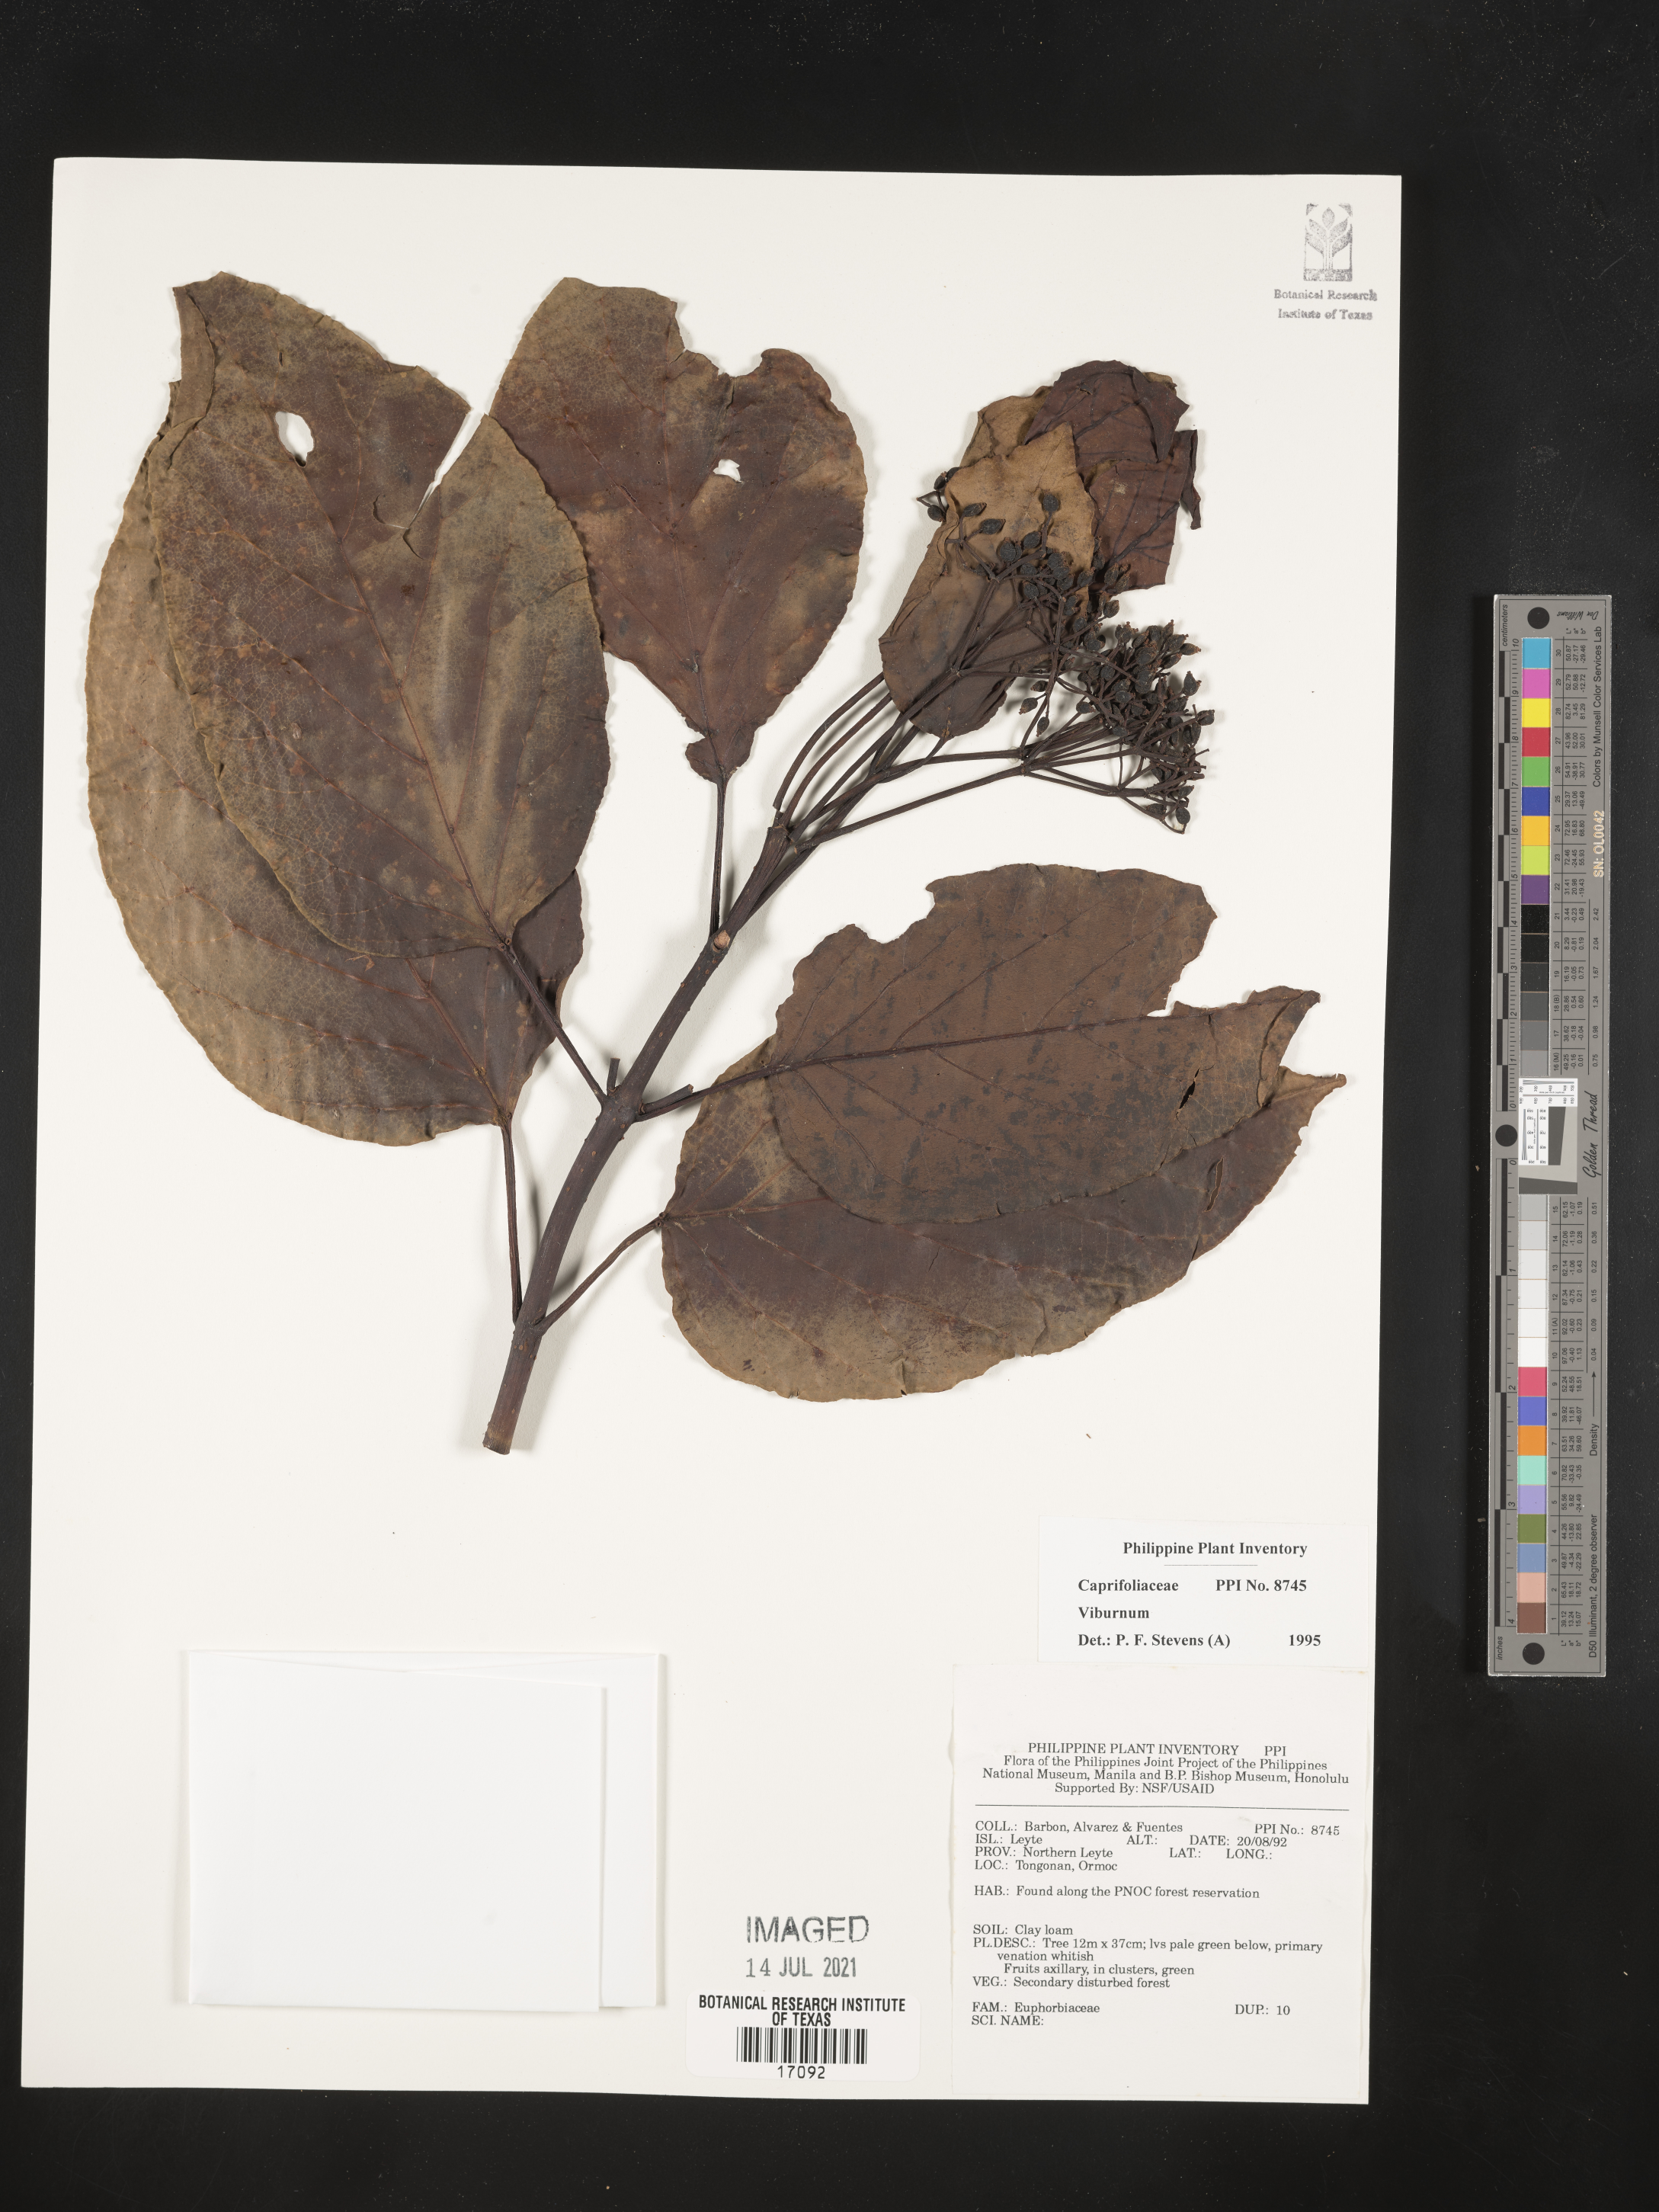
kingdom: Plantae
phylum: Tracheophyta
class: Magnoliopsida
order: Dipsacales
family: Viburnaceae
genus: Viburnum
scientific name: Viburnum
